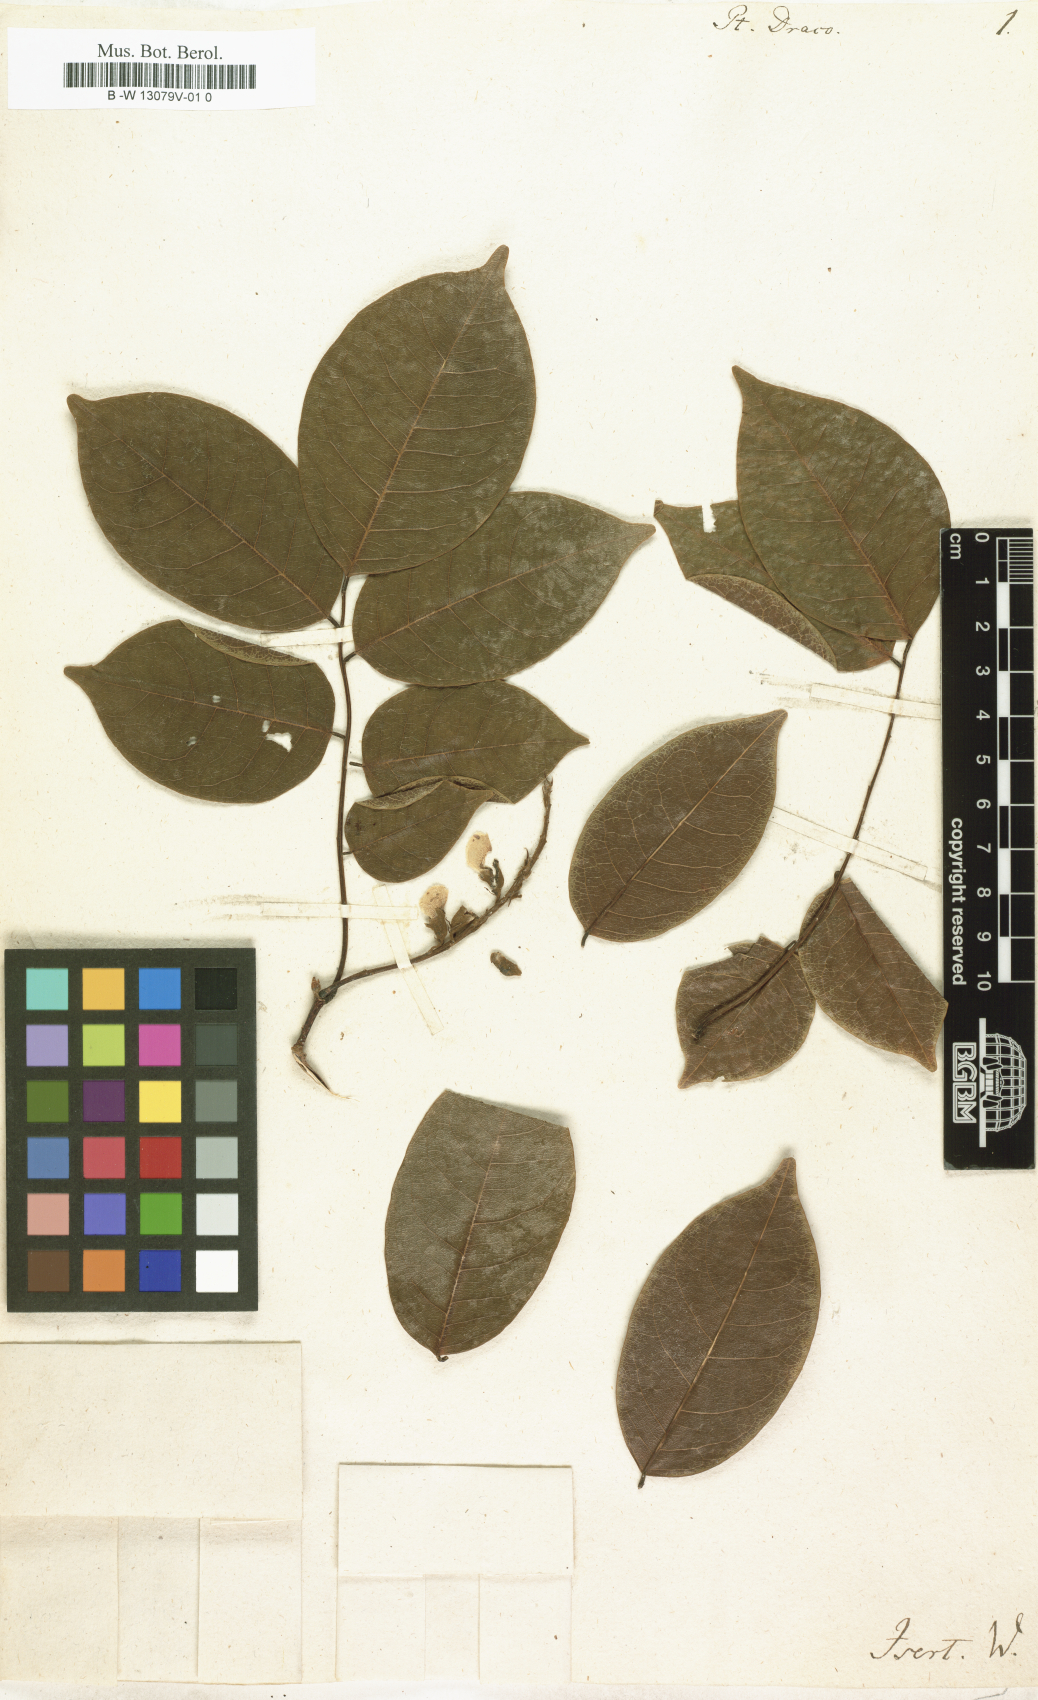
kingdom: Plantae
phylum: Tracheophyta
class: Magnoliopsida
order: Fabales
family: Fabaceae
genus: Pterocarpus
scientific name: Pterocarpus officinalis
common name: Bloodwood
